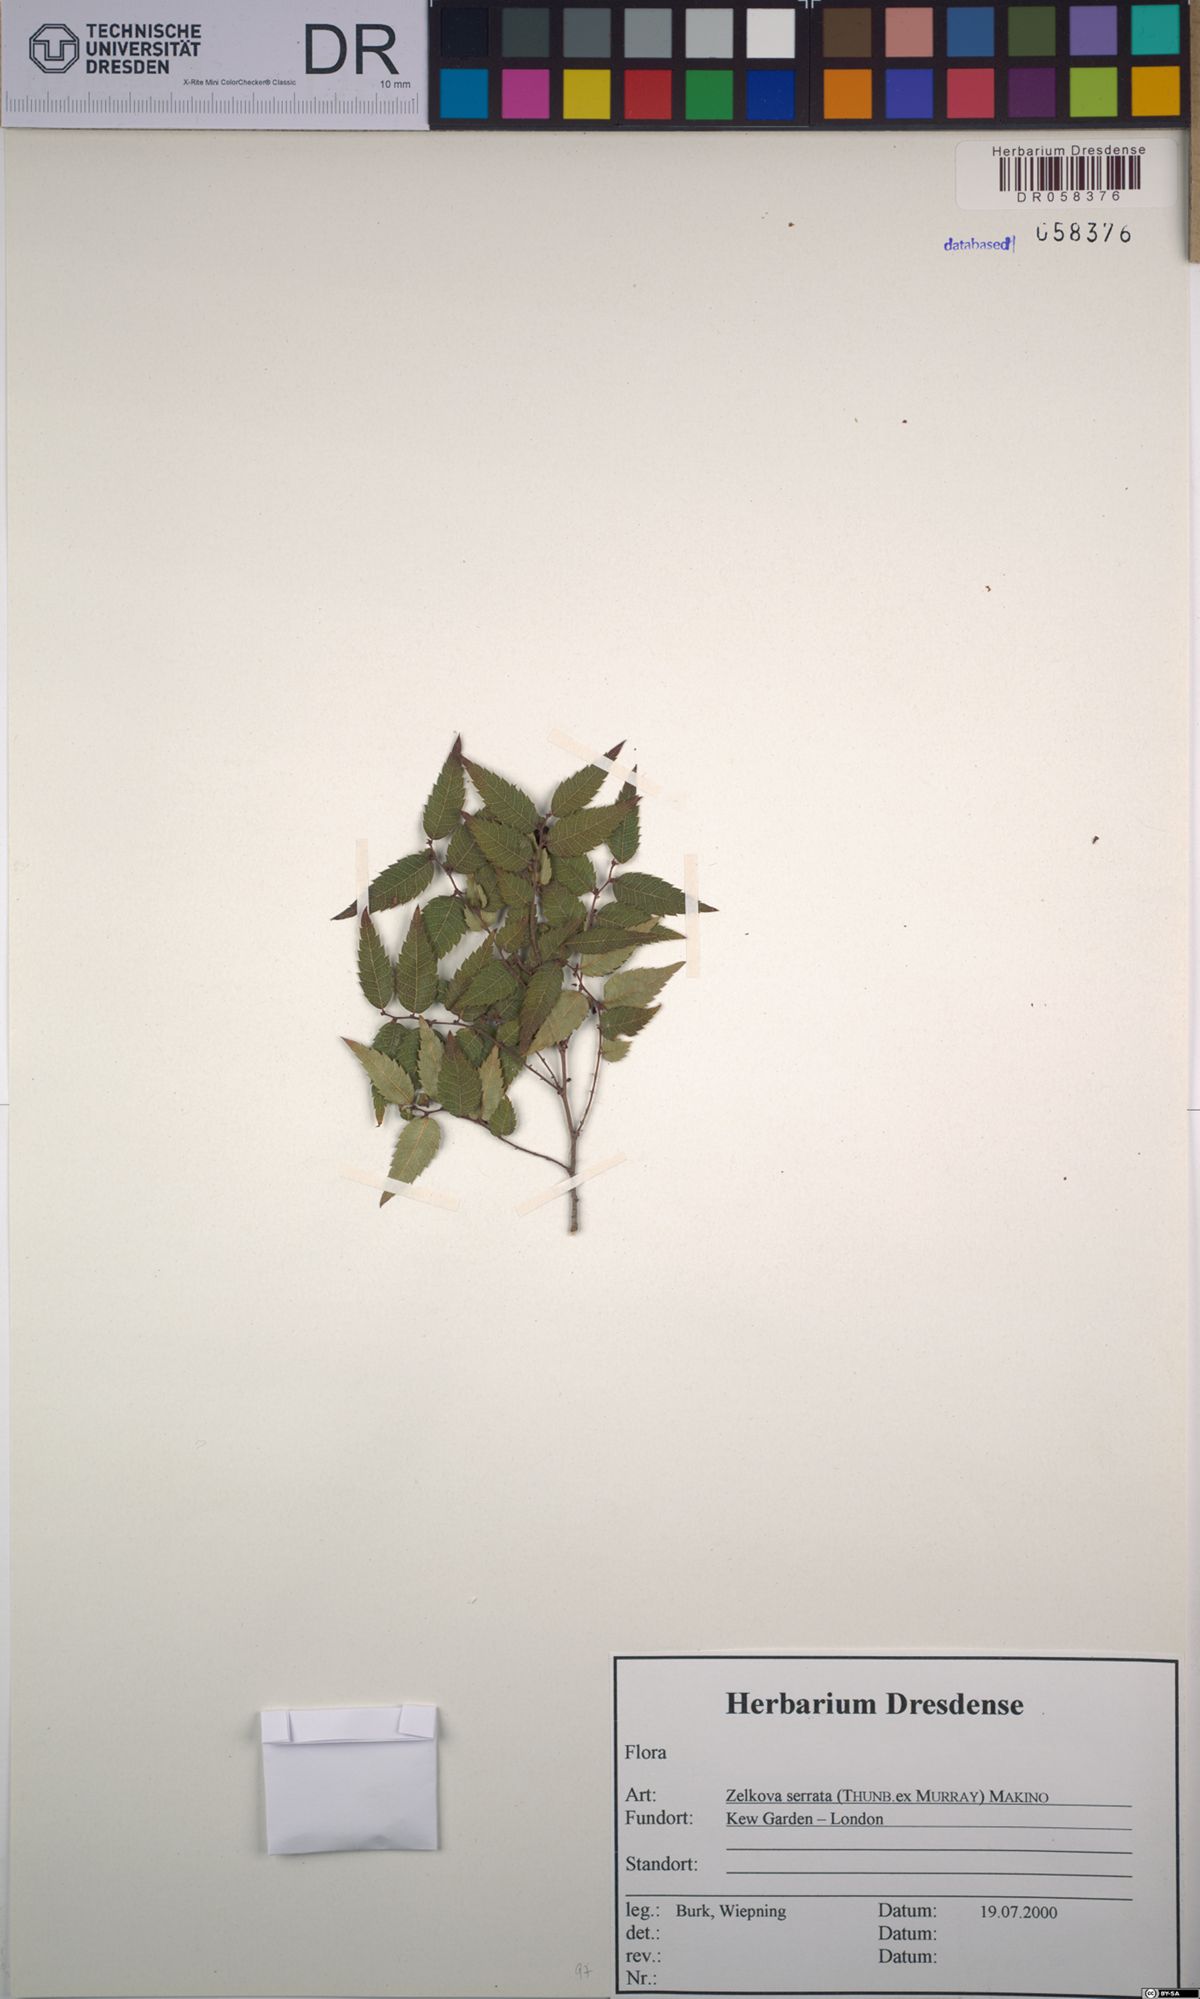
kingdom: Plantae
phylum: Tracheophyta
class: Magnoliopsida
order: Rosales
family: Ulmaceae
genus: Zelkova
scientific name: Zelkova serrata
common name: Japanese zelkova
